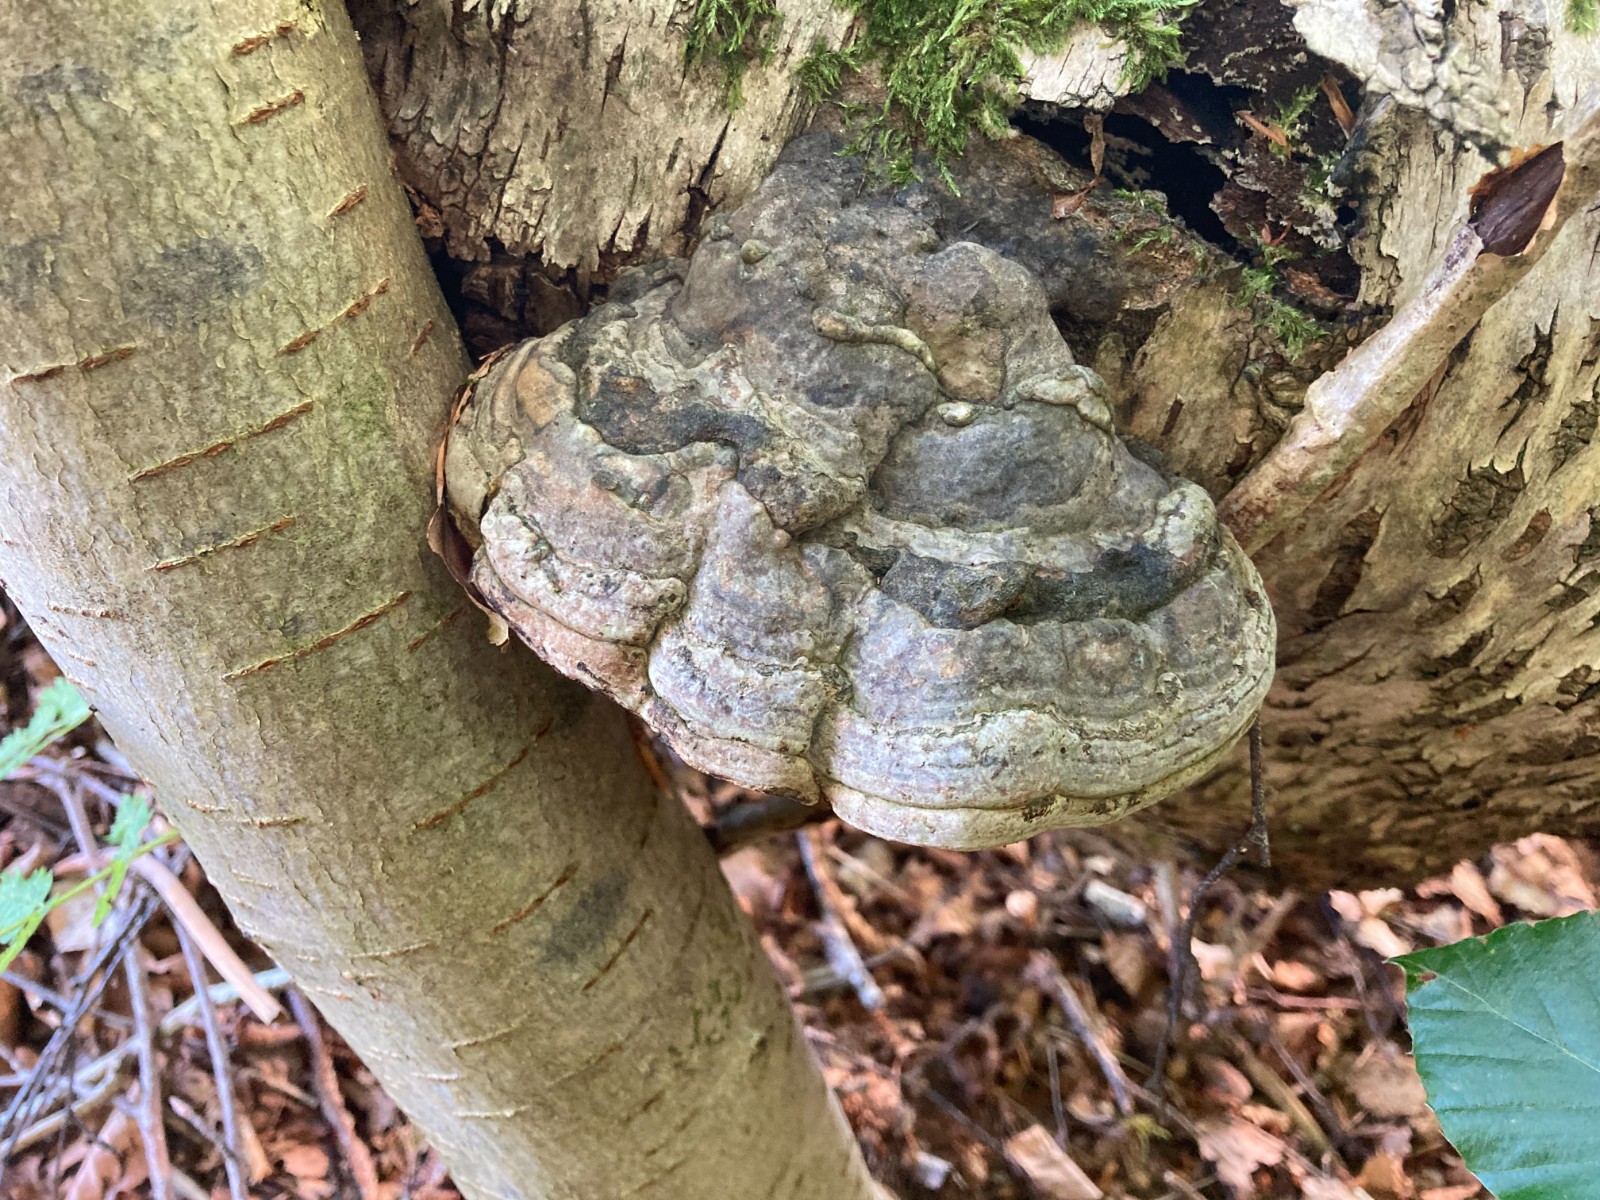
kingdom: Fungi
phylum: Basidiomycota
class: Agaricomycetes
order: Polyporales
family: Polyporaceae
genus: Fomes
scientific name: Fomes fomentarius
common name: tøndersvamp
